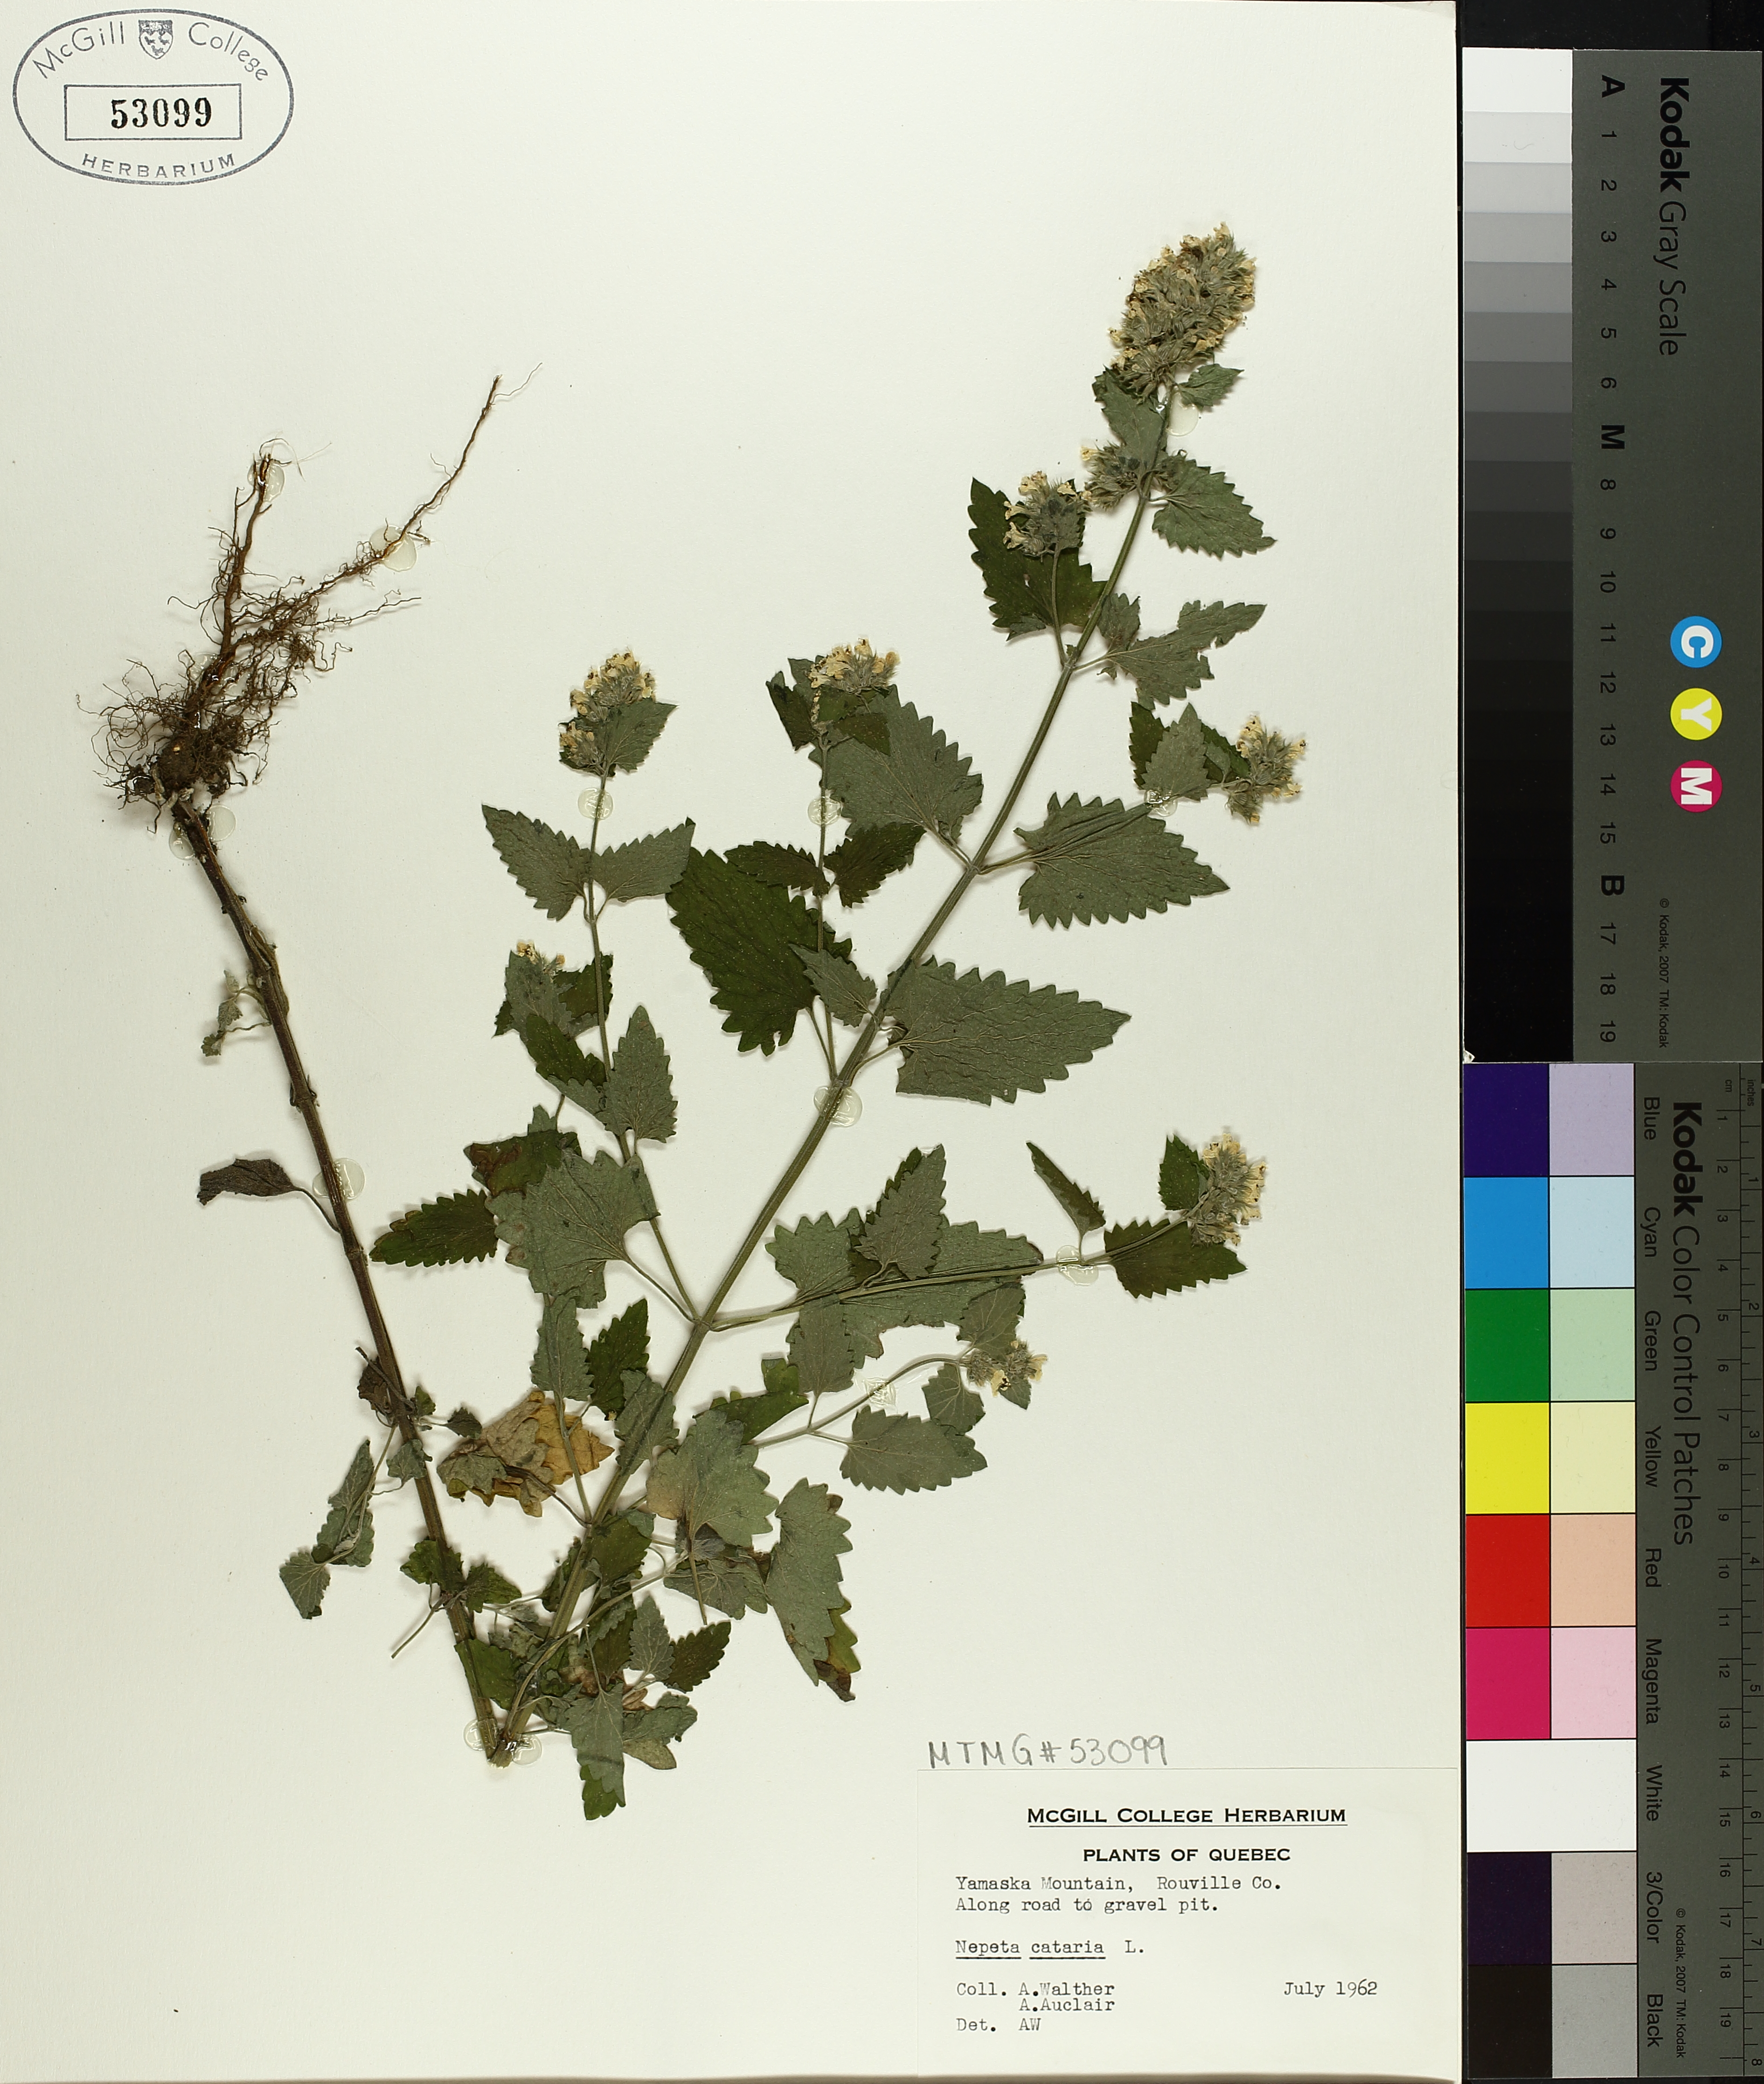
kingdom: Plantae
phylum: Tracheophyta
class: Magnoliopsida
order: Lamiales
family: Lamiaceae
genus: Nepeta
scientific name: Nepeta cataria
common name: Catnip
